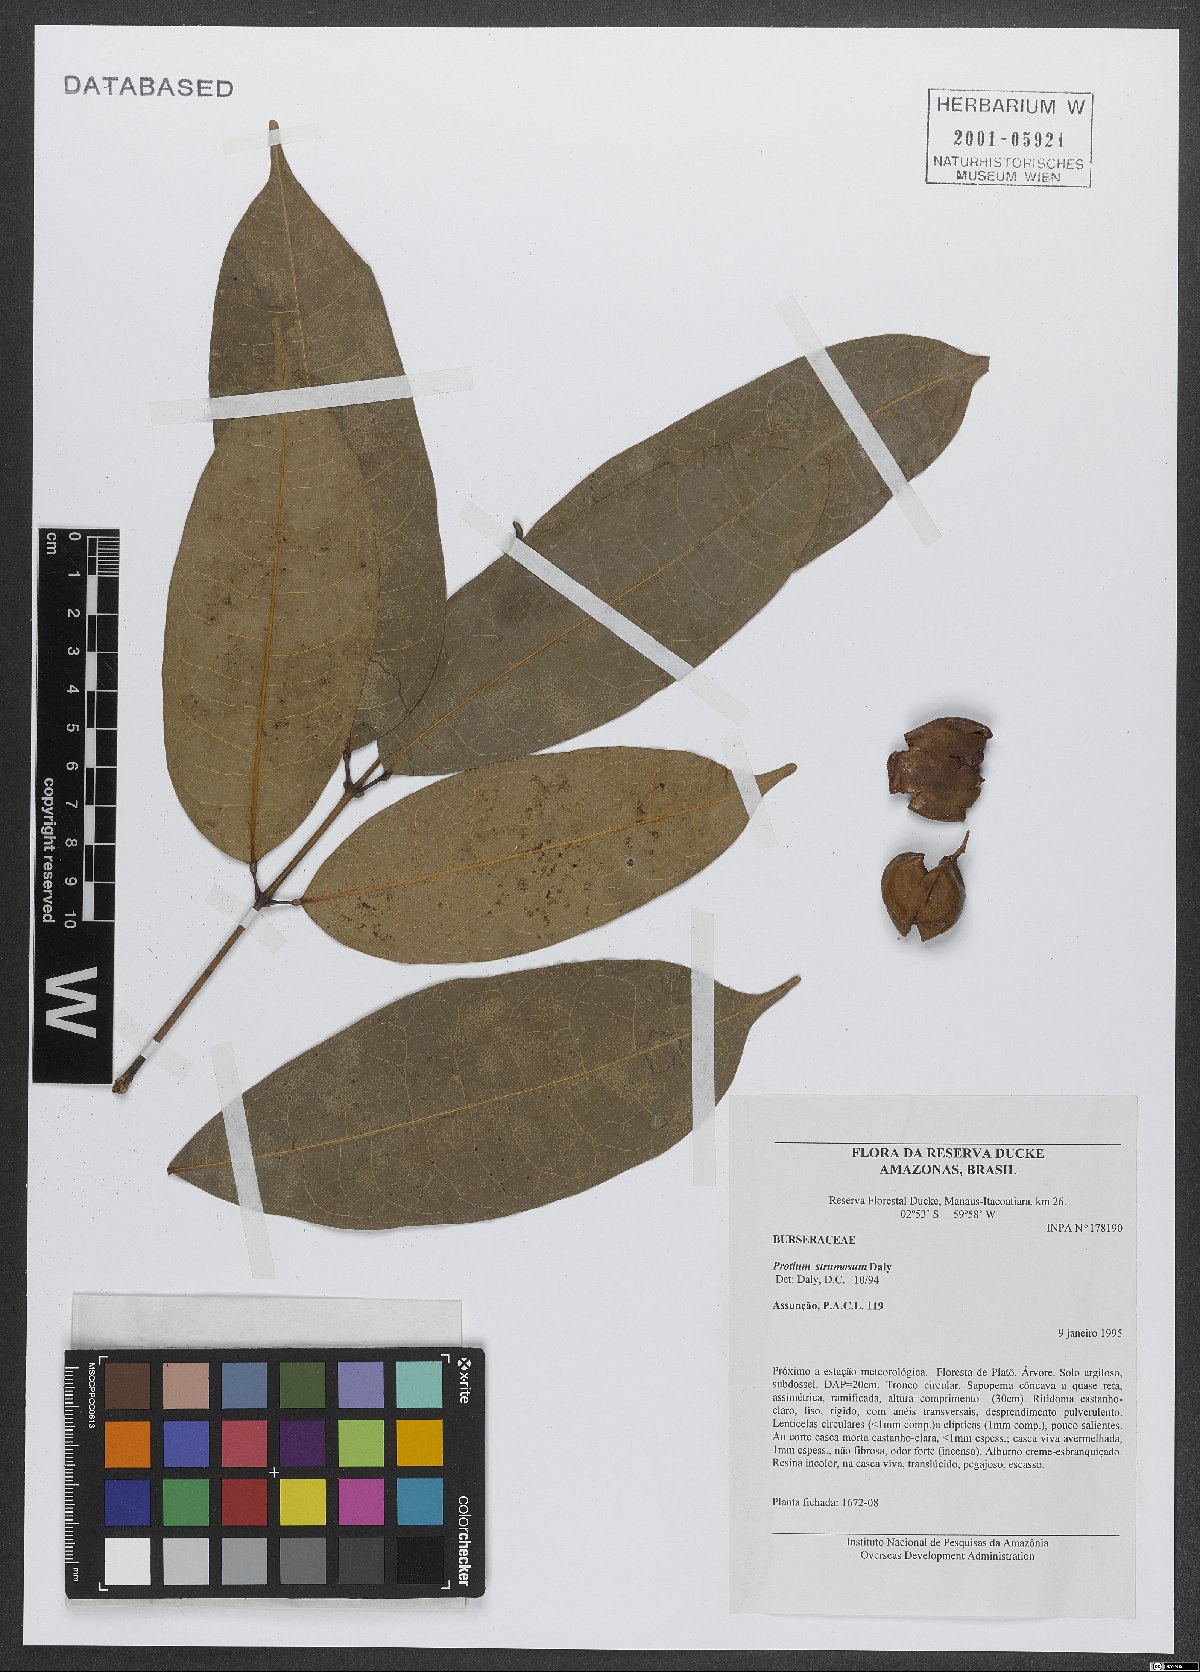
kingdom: Plantae
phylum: Tracheophyta
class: Magnoliopsida
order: Sapindales
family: Burseraceae
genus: Protium
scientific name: Protium strumosum
